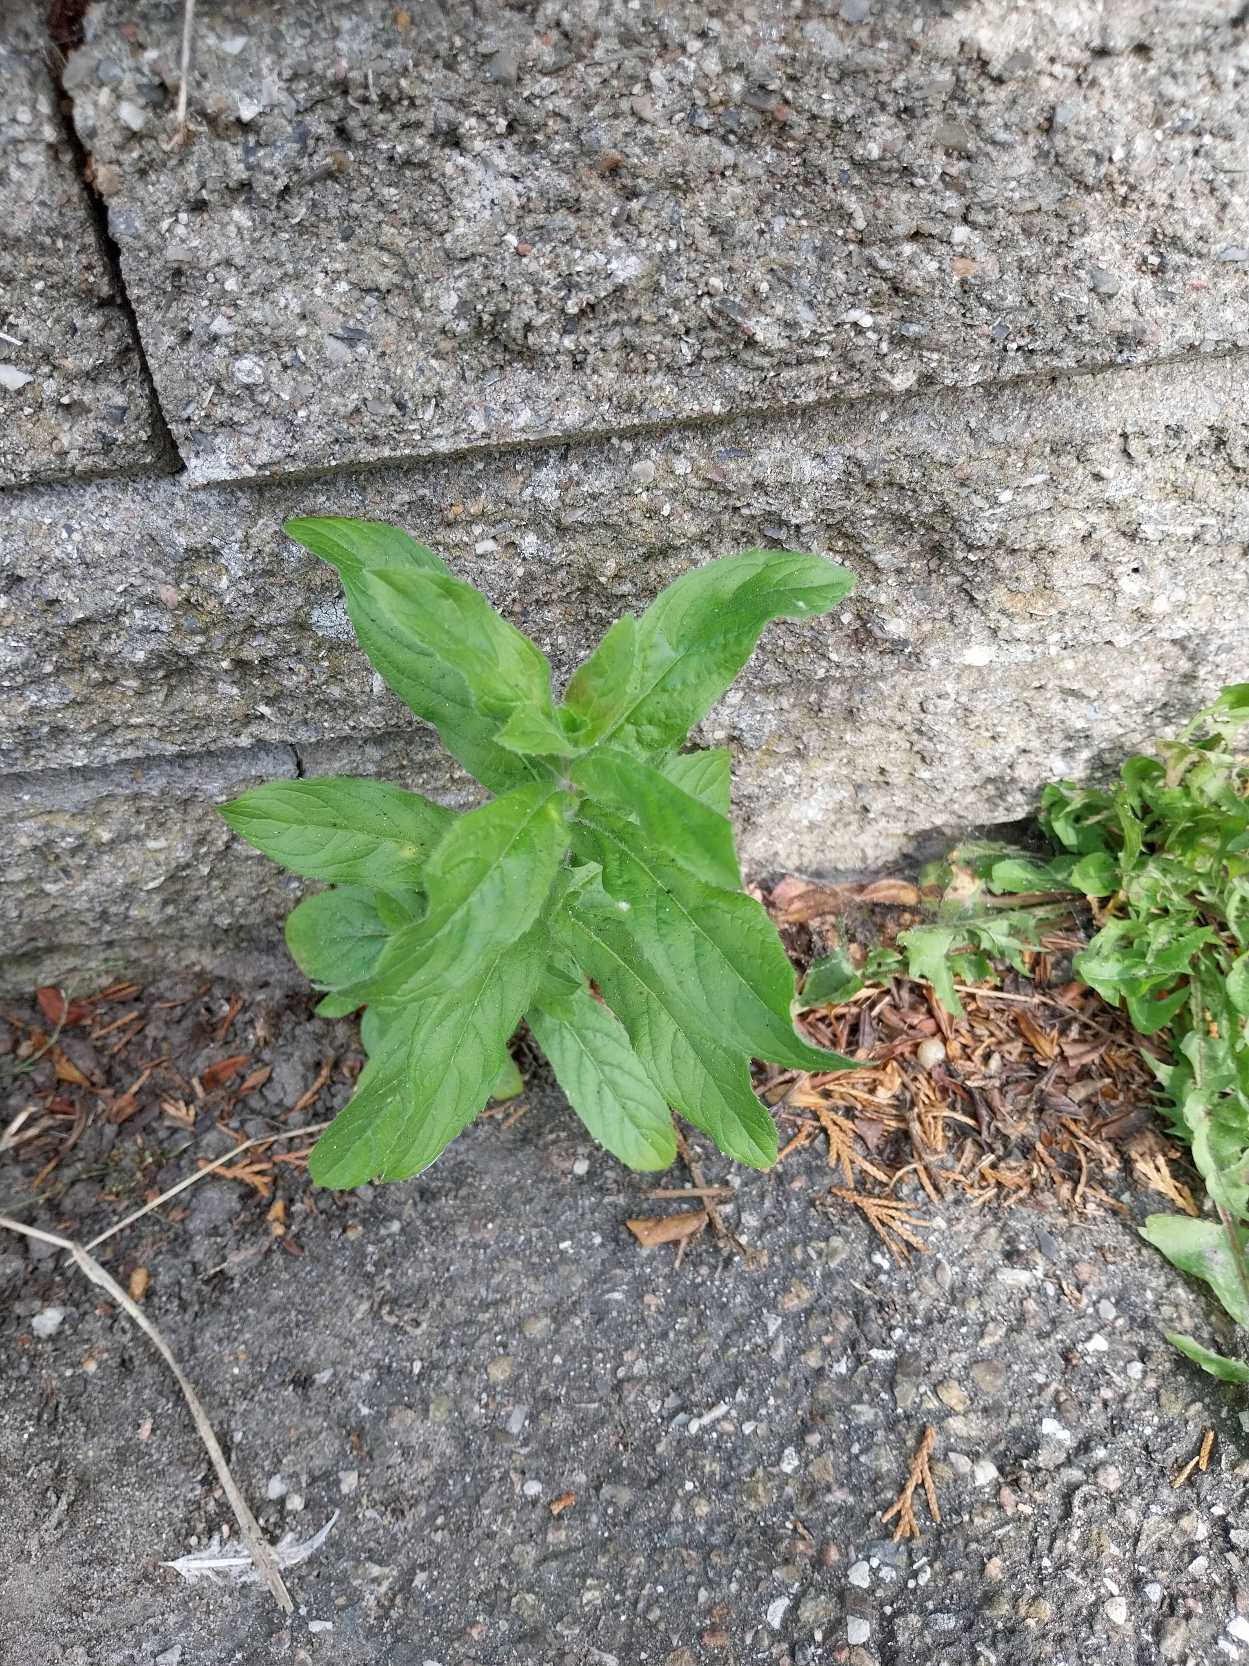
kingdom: Plantae
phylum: Tracheophyta
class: Magnoliopsida
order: Myrtales
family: Onagraceae
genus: Epilobium
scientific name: Epilobium hirsutum
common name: Lådden dueurt
